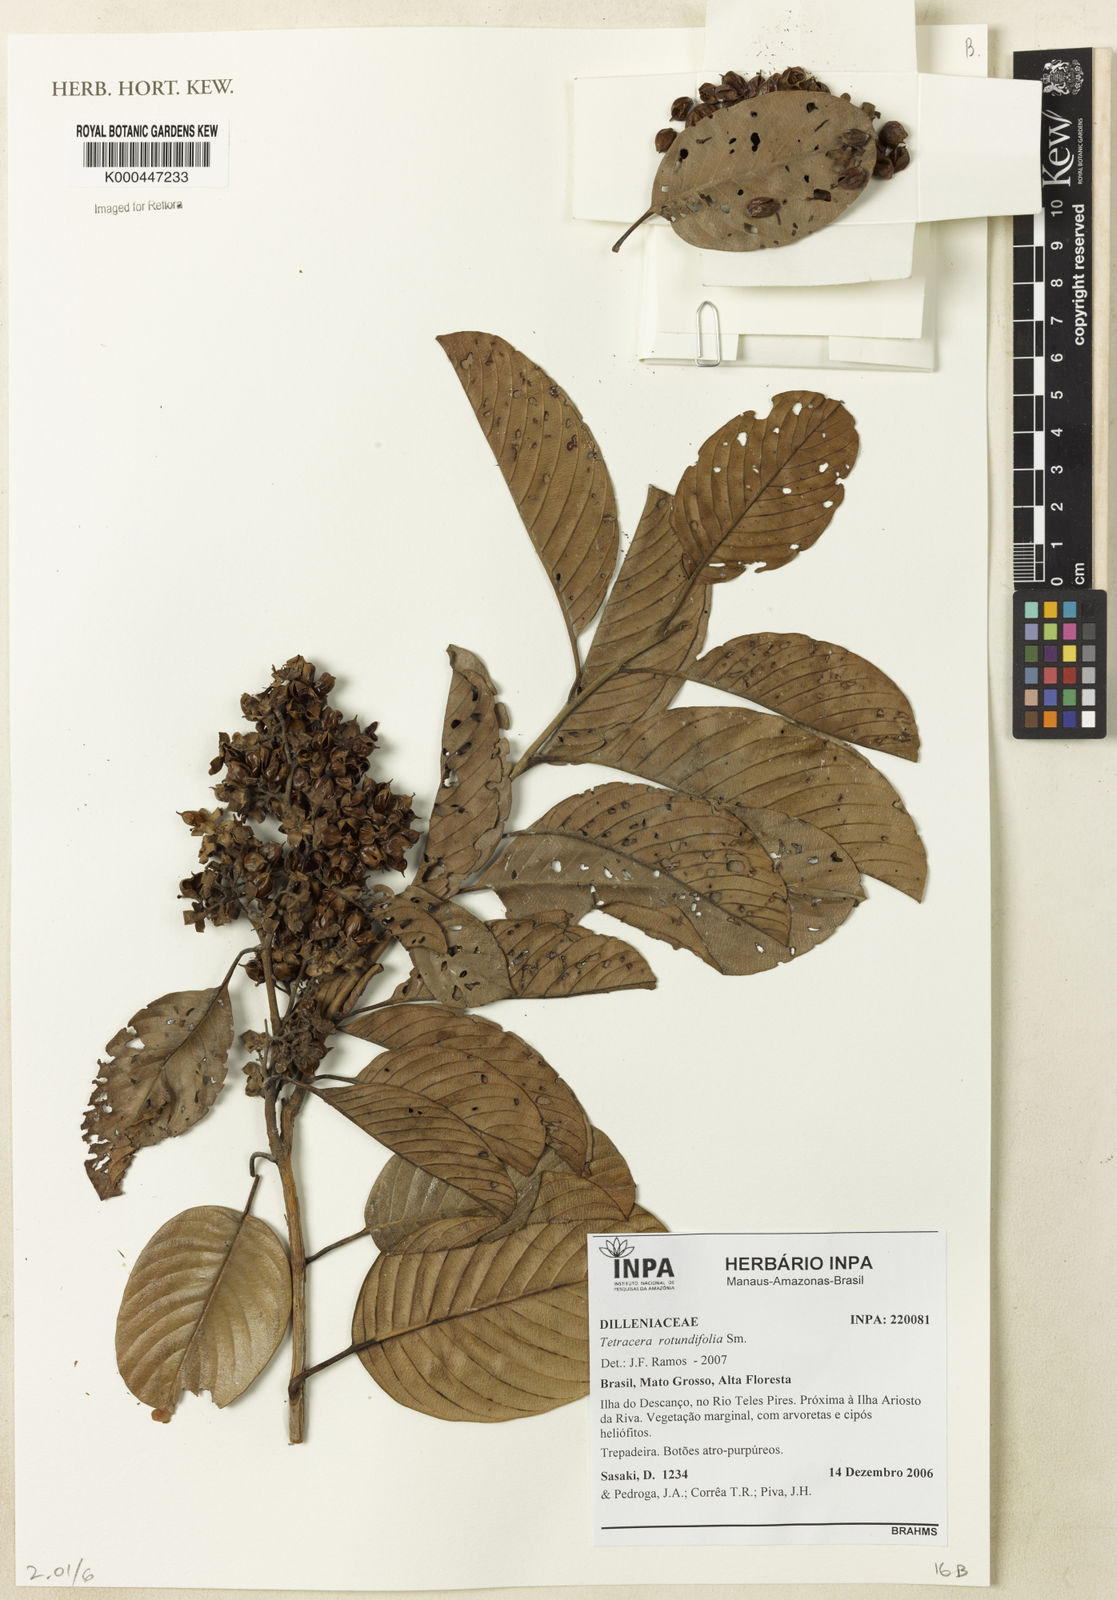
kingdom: Plantae
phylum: Tracheophyta
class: Magnoliopsida
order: Dilleniales
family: Dilleniaceae
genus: Tetracera
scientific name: Tetracera rotundifolia
